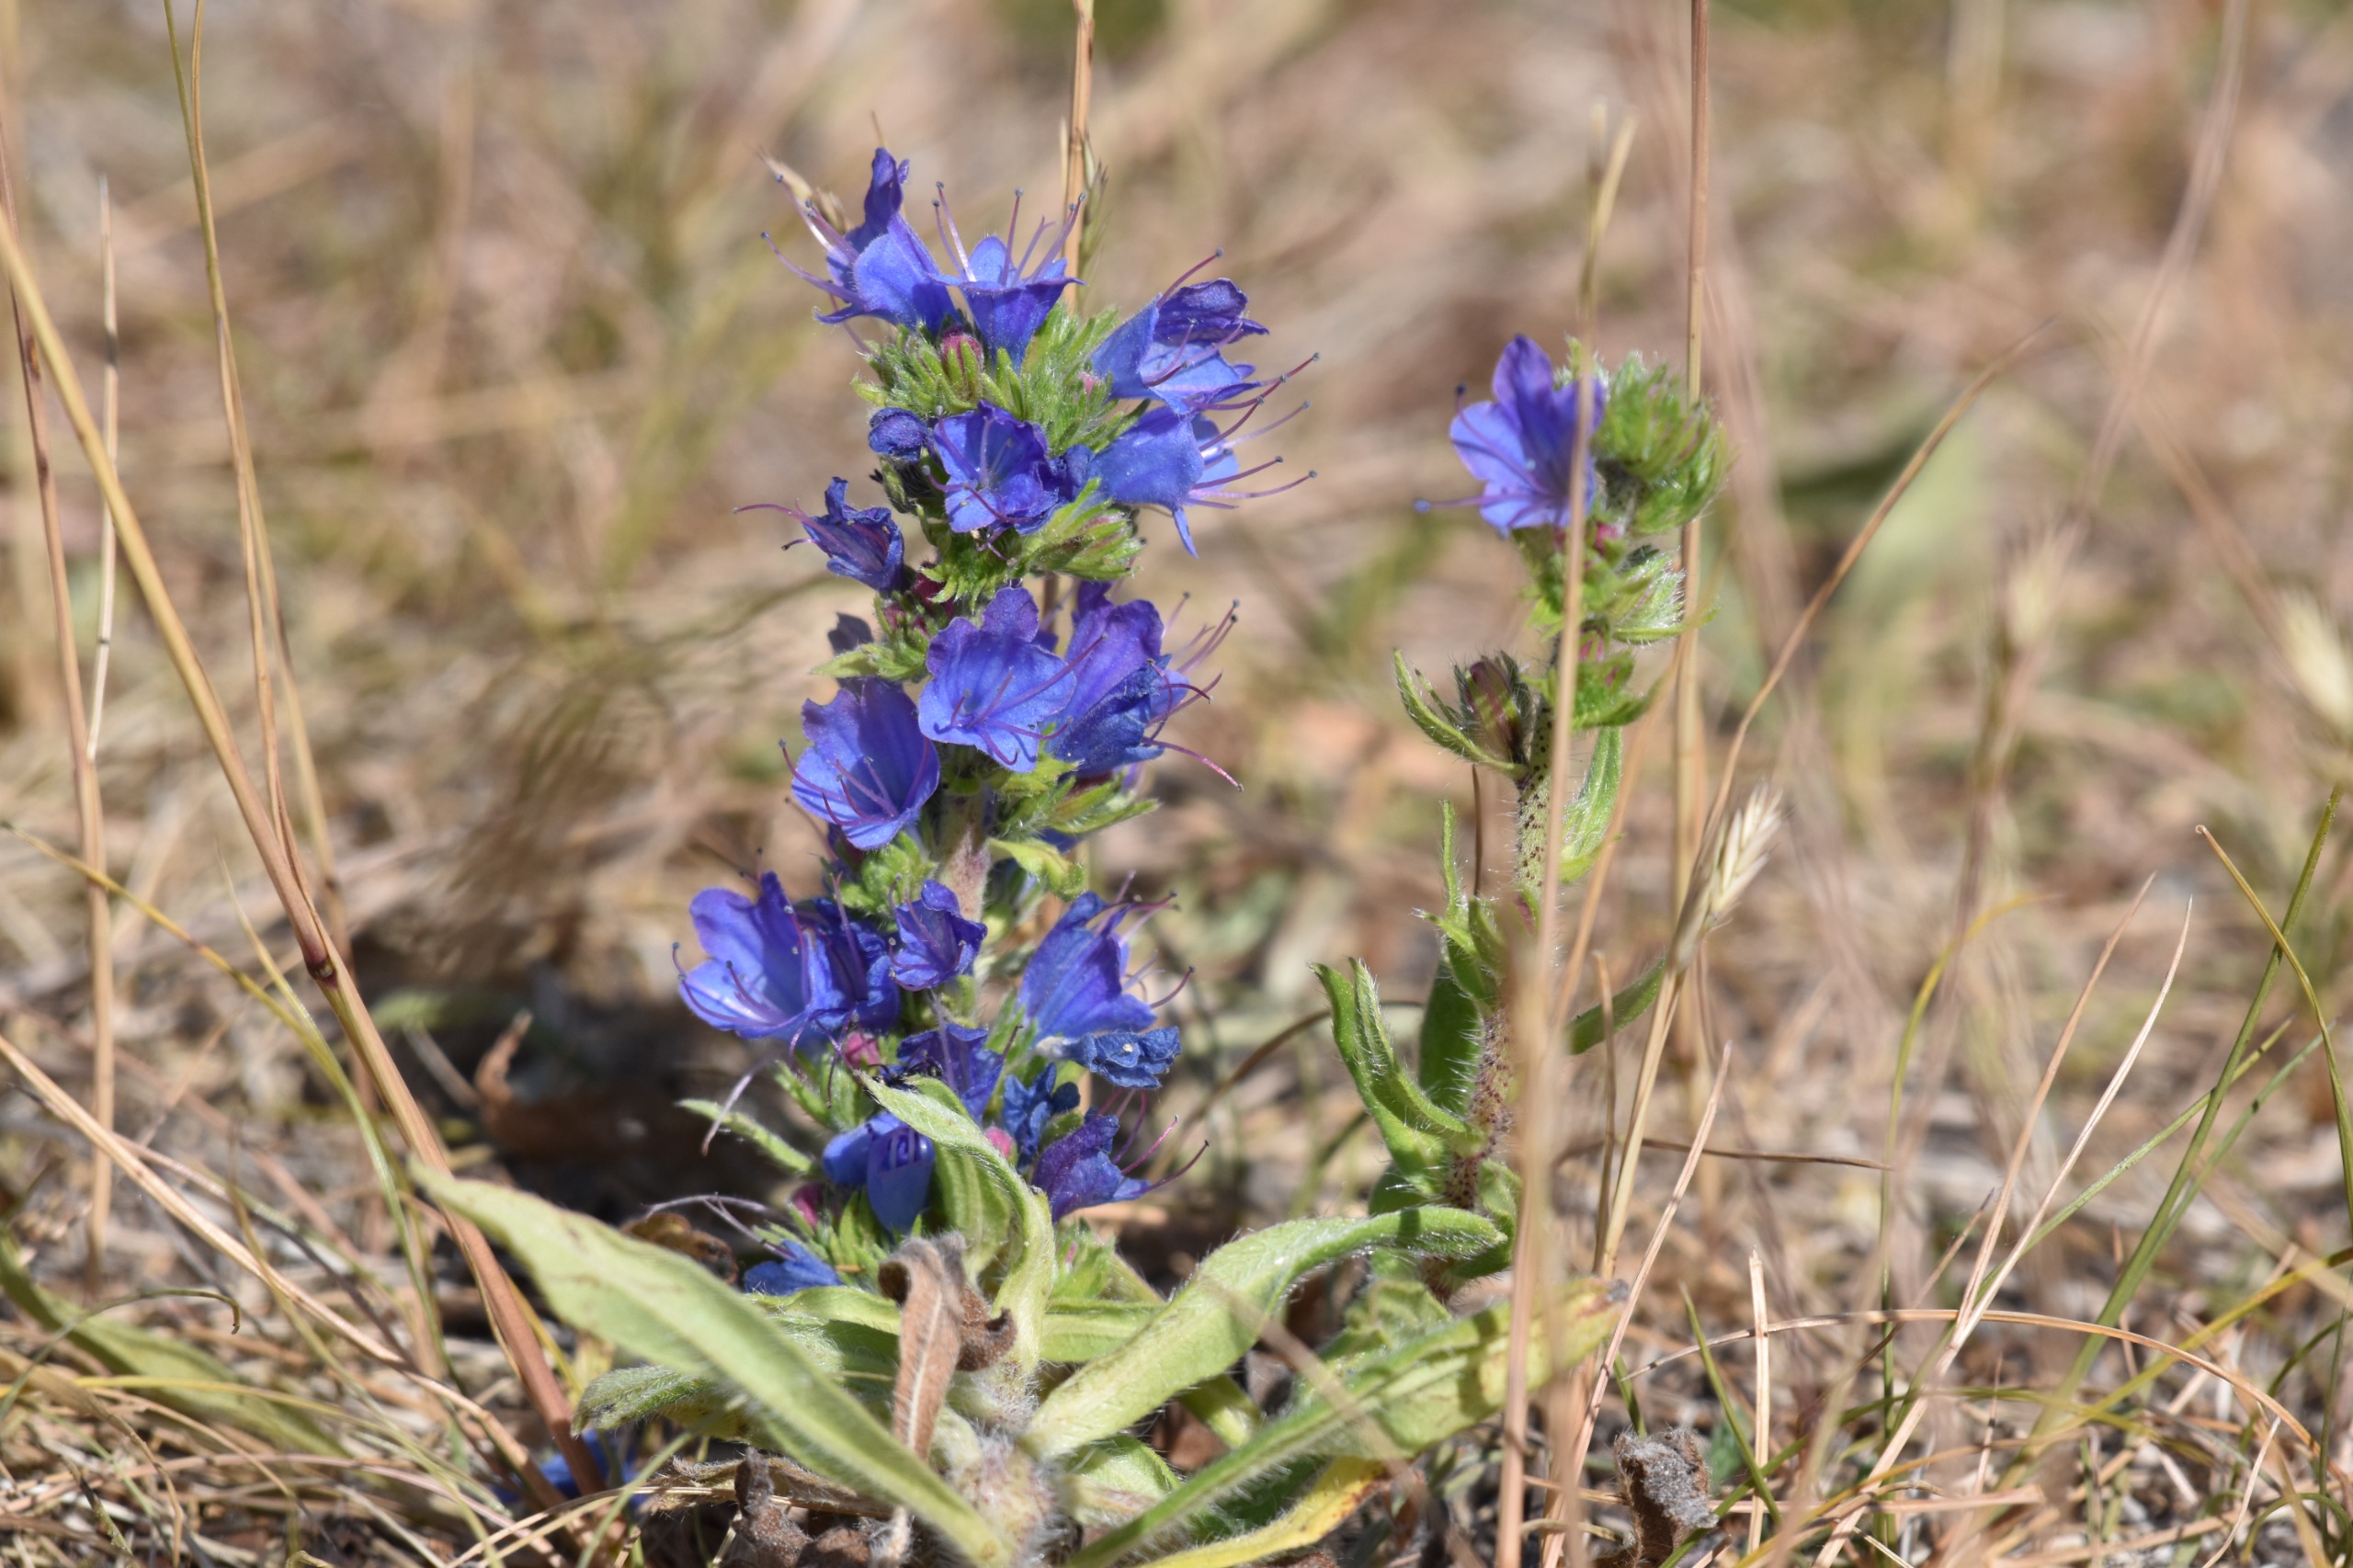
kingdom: Plantae
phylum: Tracheophyta
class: Magnoliopsida
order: Boraginales
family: Boraginaceae
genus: Echium
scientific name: Echium vulgare
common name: Slangehoved
